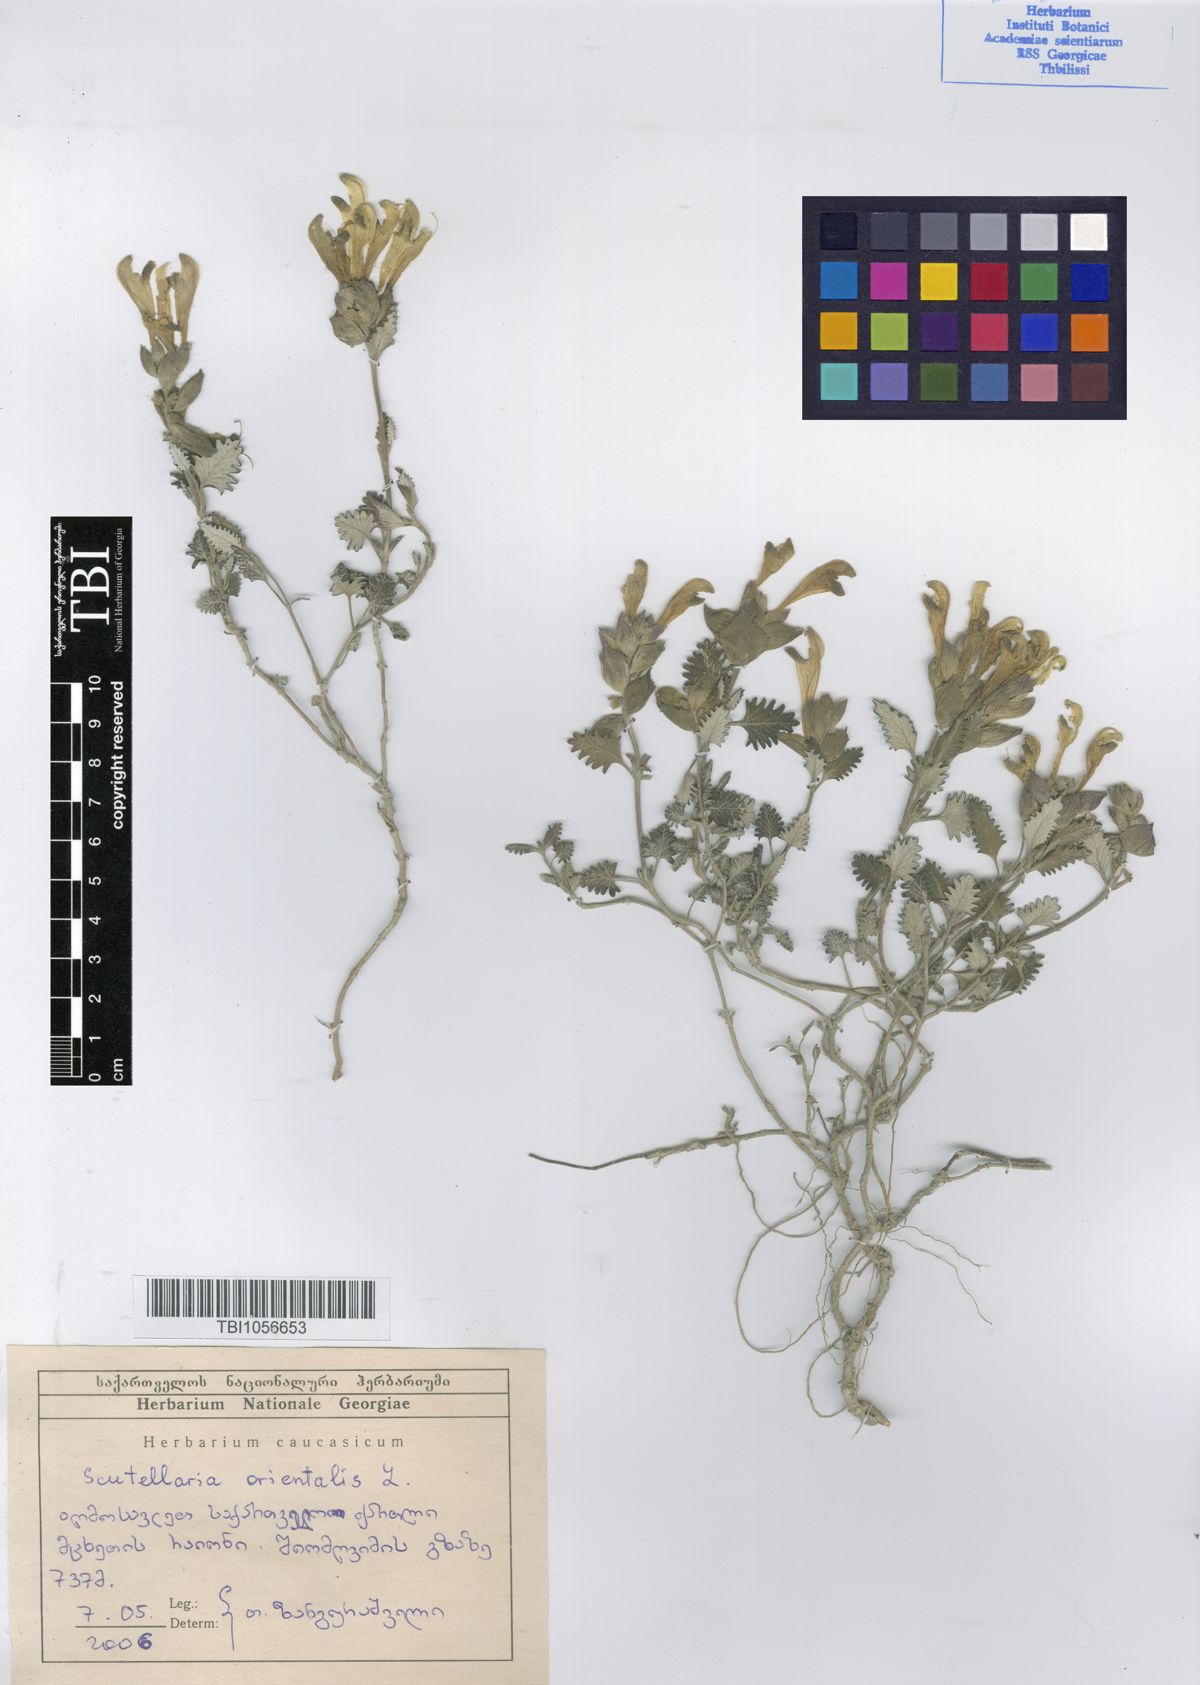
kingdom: Plantae
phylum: Tracheophyta
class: Magnoliopsida
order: Lamiales
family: Lamiaceae
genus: Scutellaria
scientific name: Scutellaria orientalis
